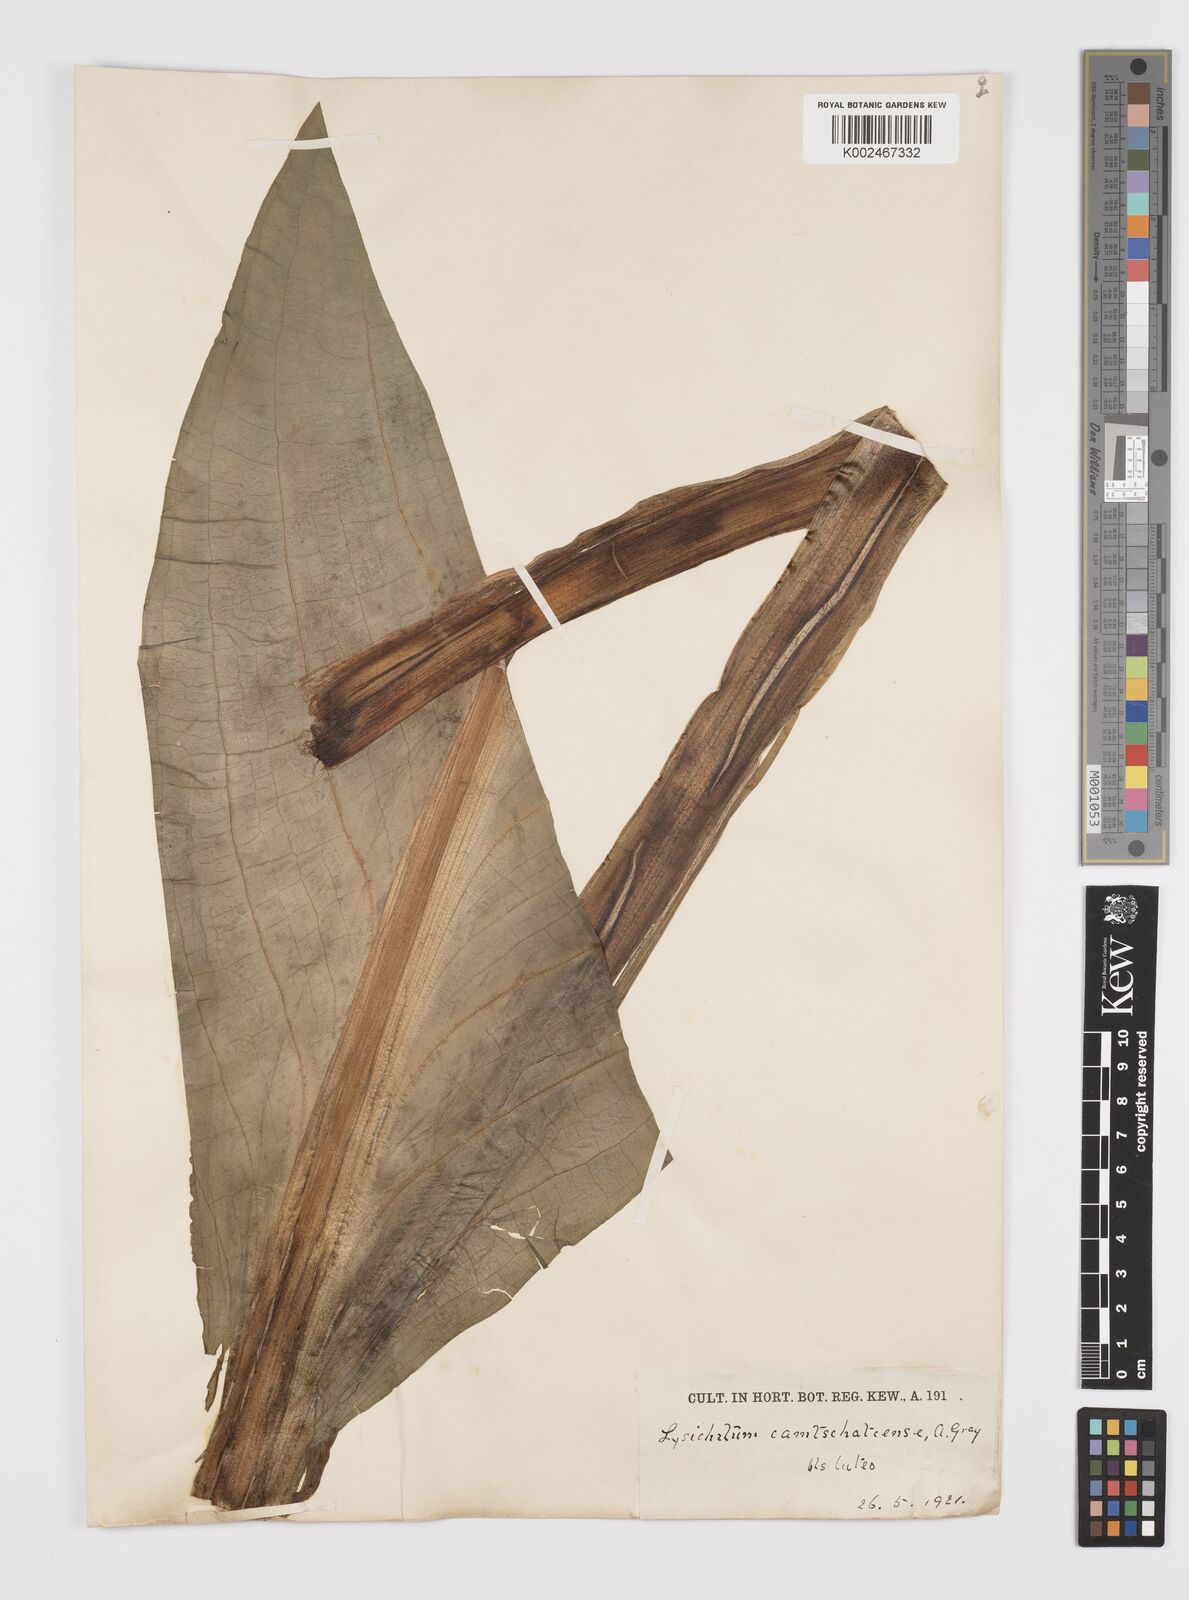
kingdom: Plantae
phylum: Tracheophyta
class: Liliopsida
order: Alismatales
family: Araceae
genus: Lysichiton
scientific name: Lysichiton americanus
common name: American skunk cabbage
